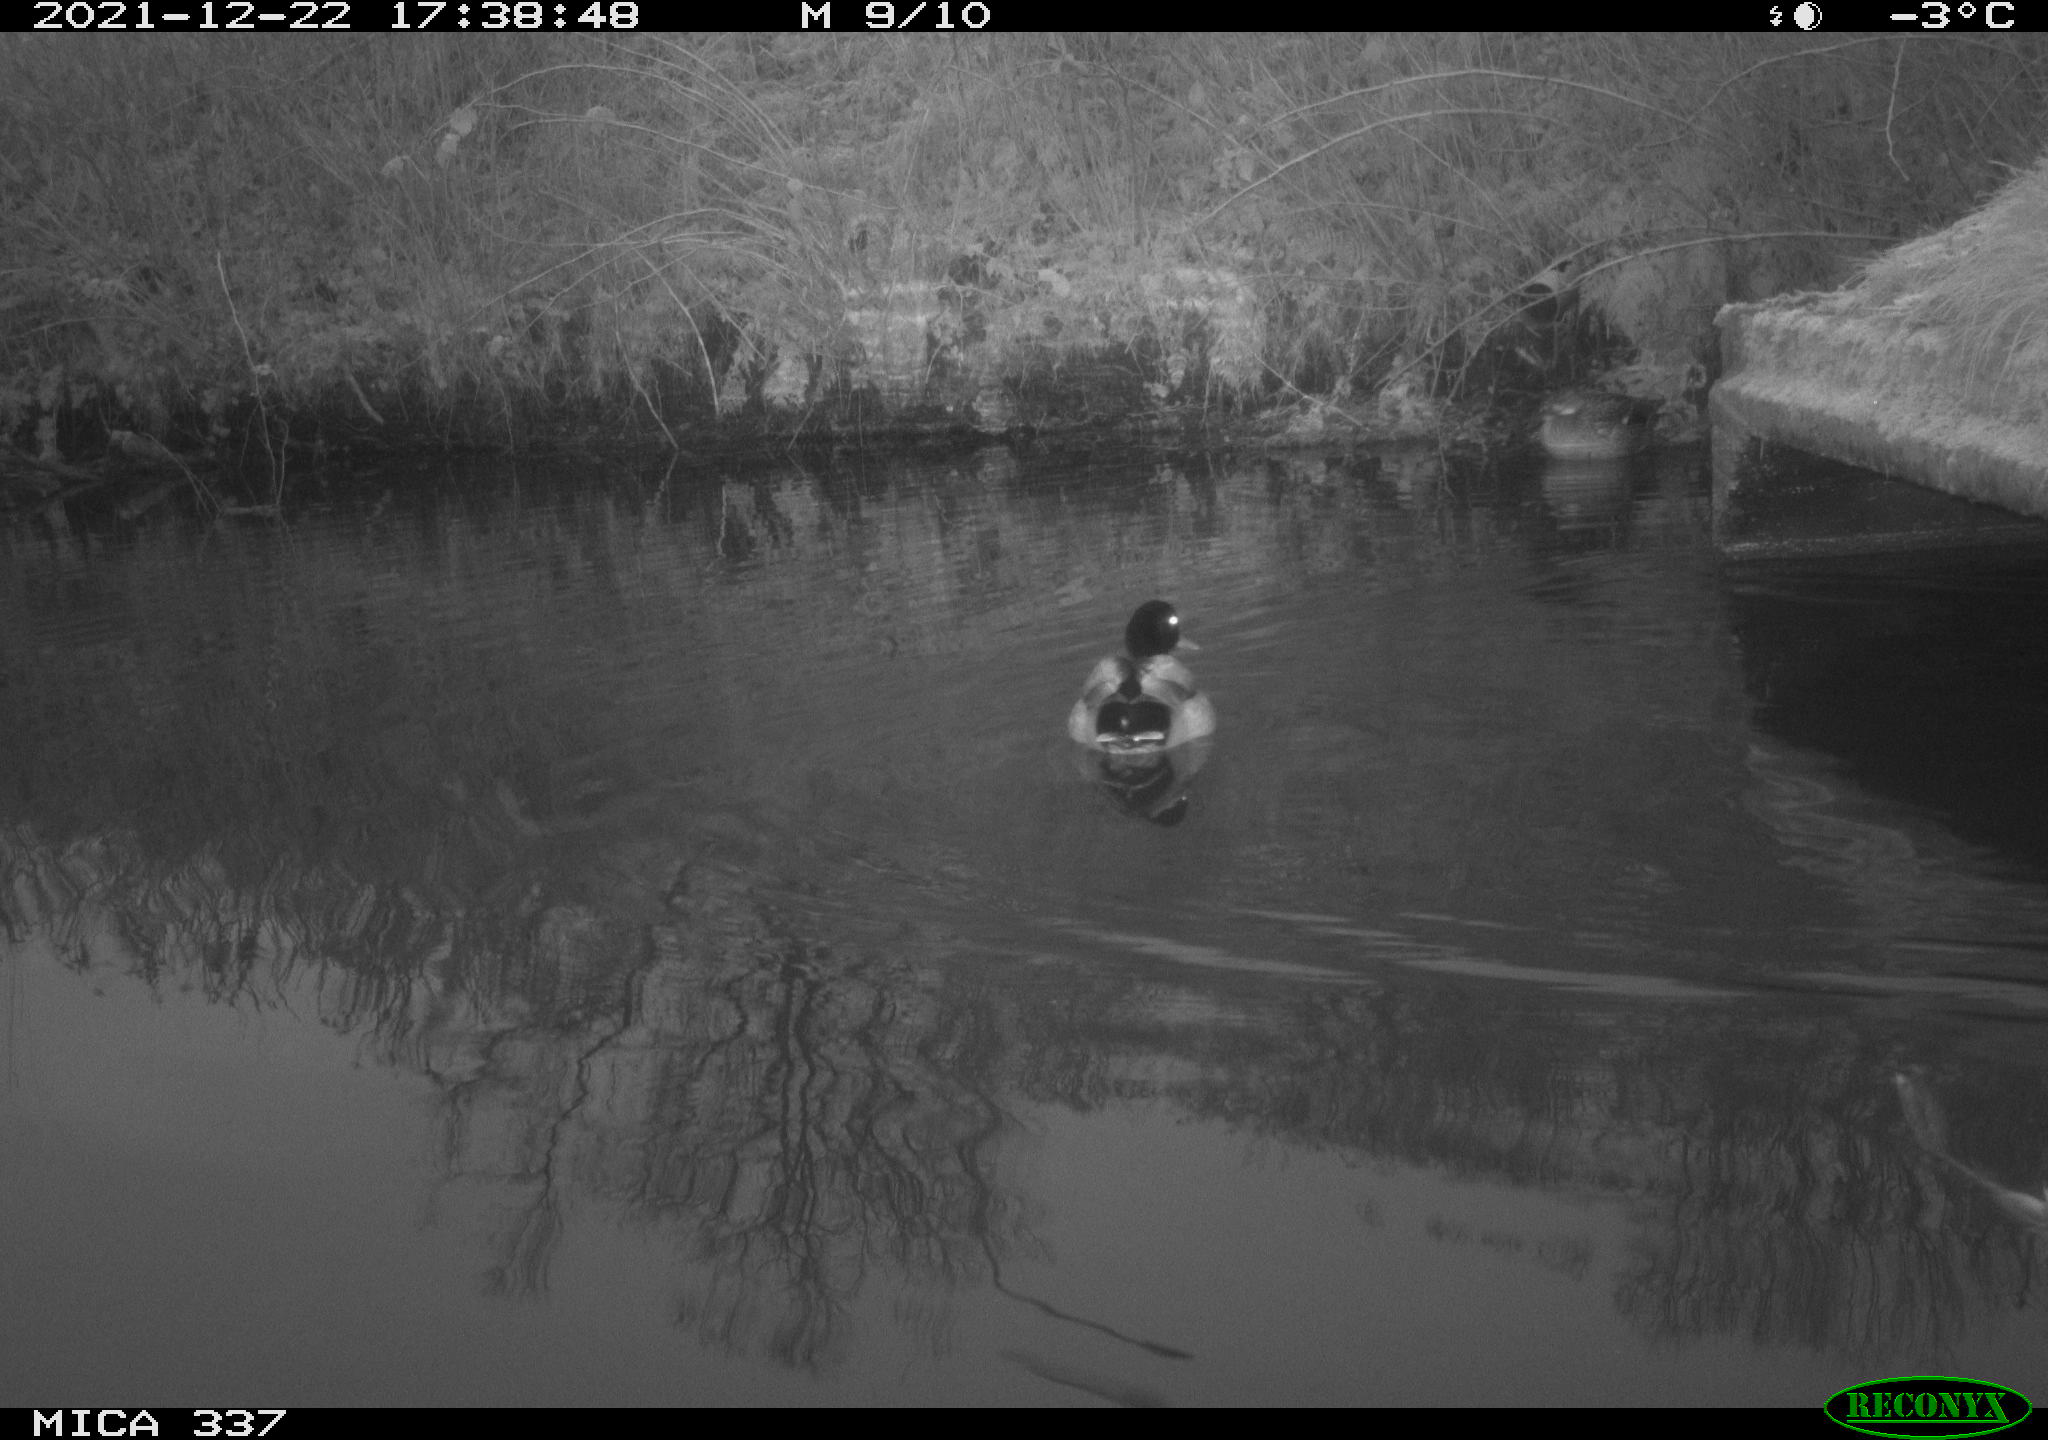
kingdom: Animalia
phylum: Chordata
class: Aves
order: Anseriformes
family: Anatidae
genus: Anas
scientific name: Anas platyrhynchos
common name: Mallard
